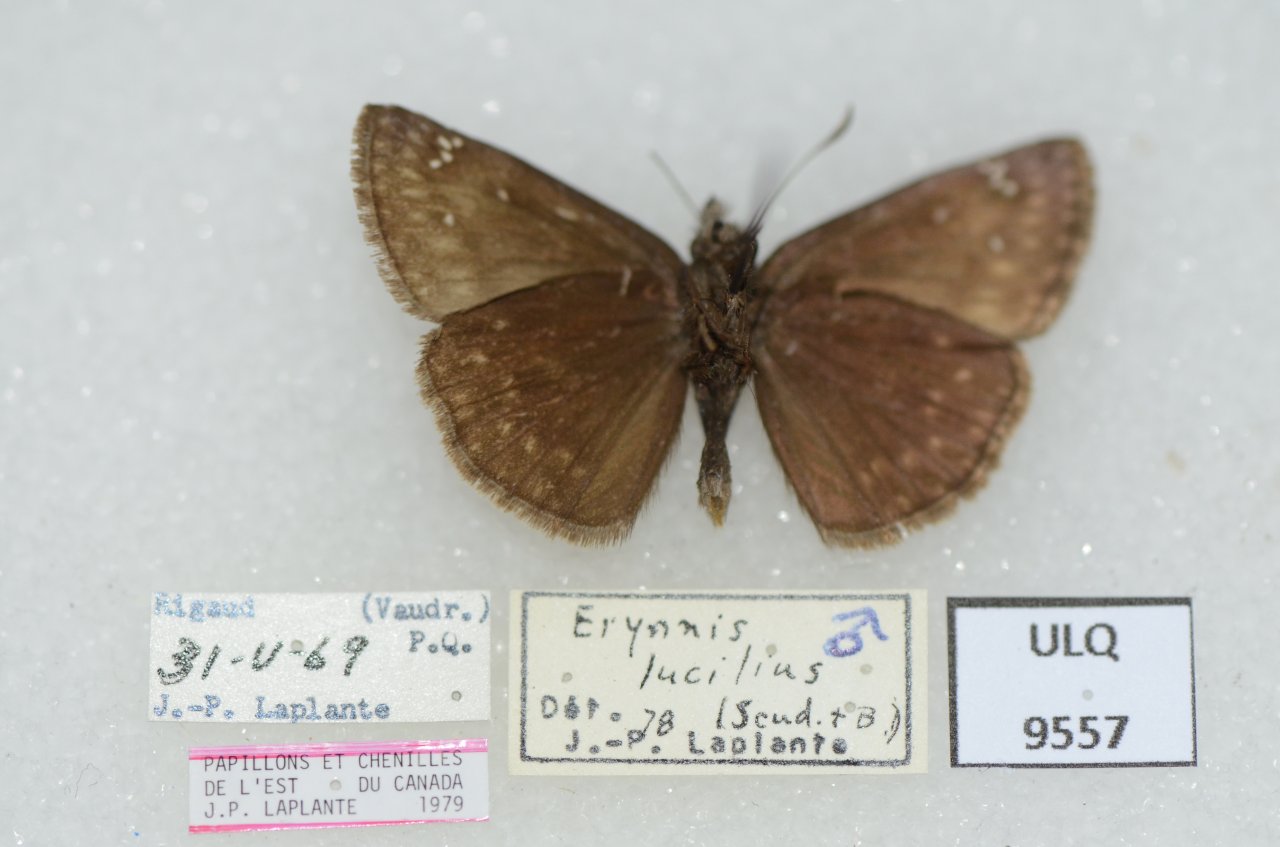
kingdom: Animalia
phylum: Arthropoda
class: Insecta
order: Lepidoptera
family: Hesperiidae
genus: Gesta
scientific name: Gesta
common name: Columbine Duskywing
